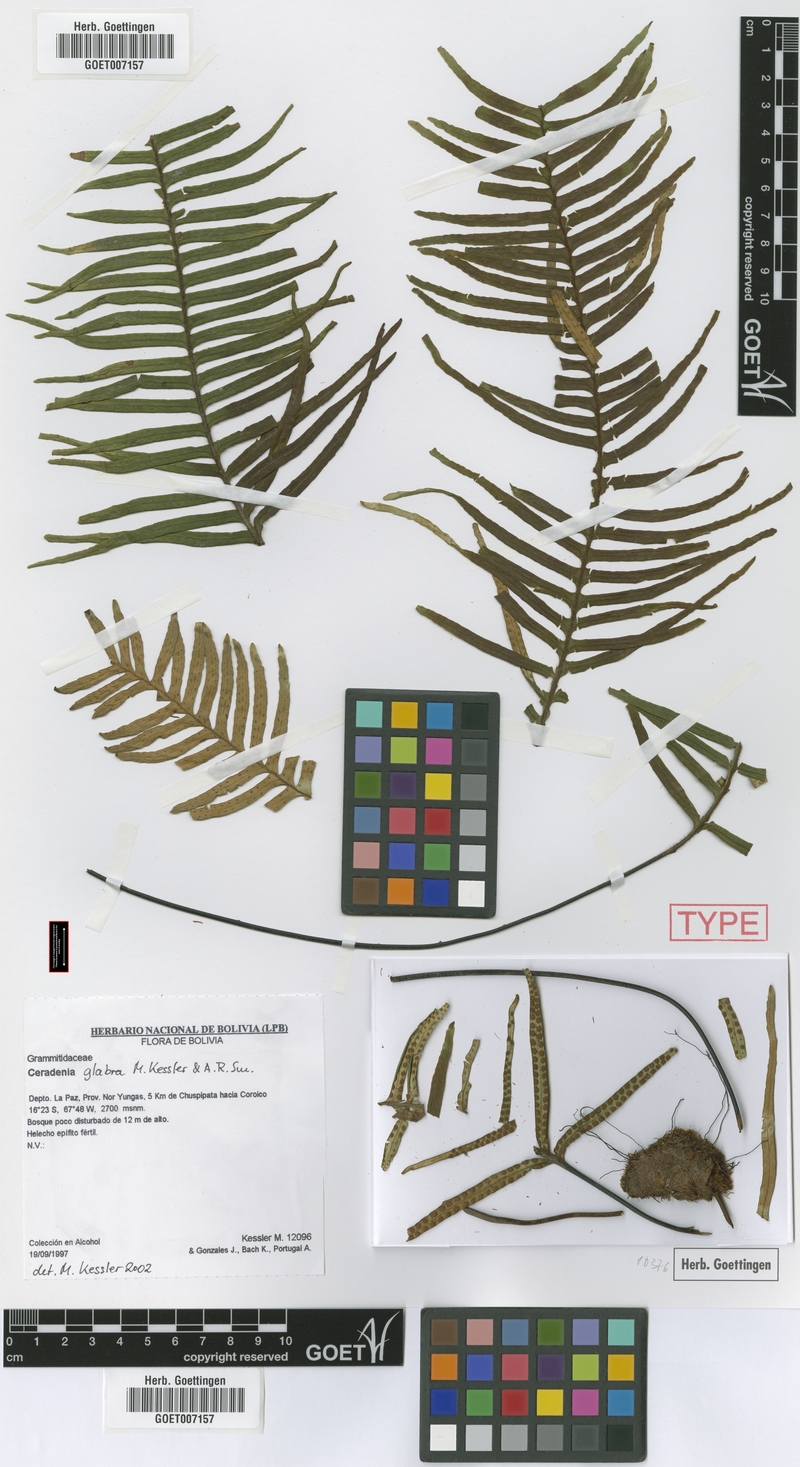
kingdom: Plantae
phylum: Tracheophyta
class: Polypodiopsida
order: Polypodiales
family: Polypodiaceae
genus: Ceradenia
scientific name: Ceradenia glabra
